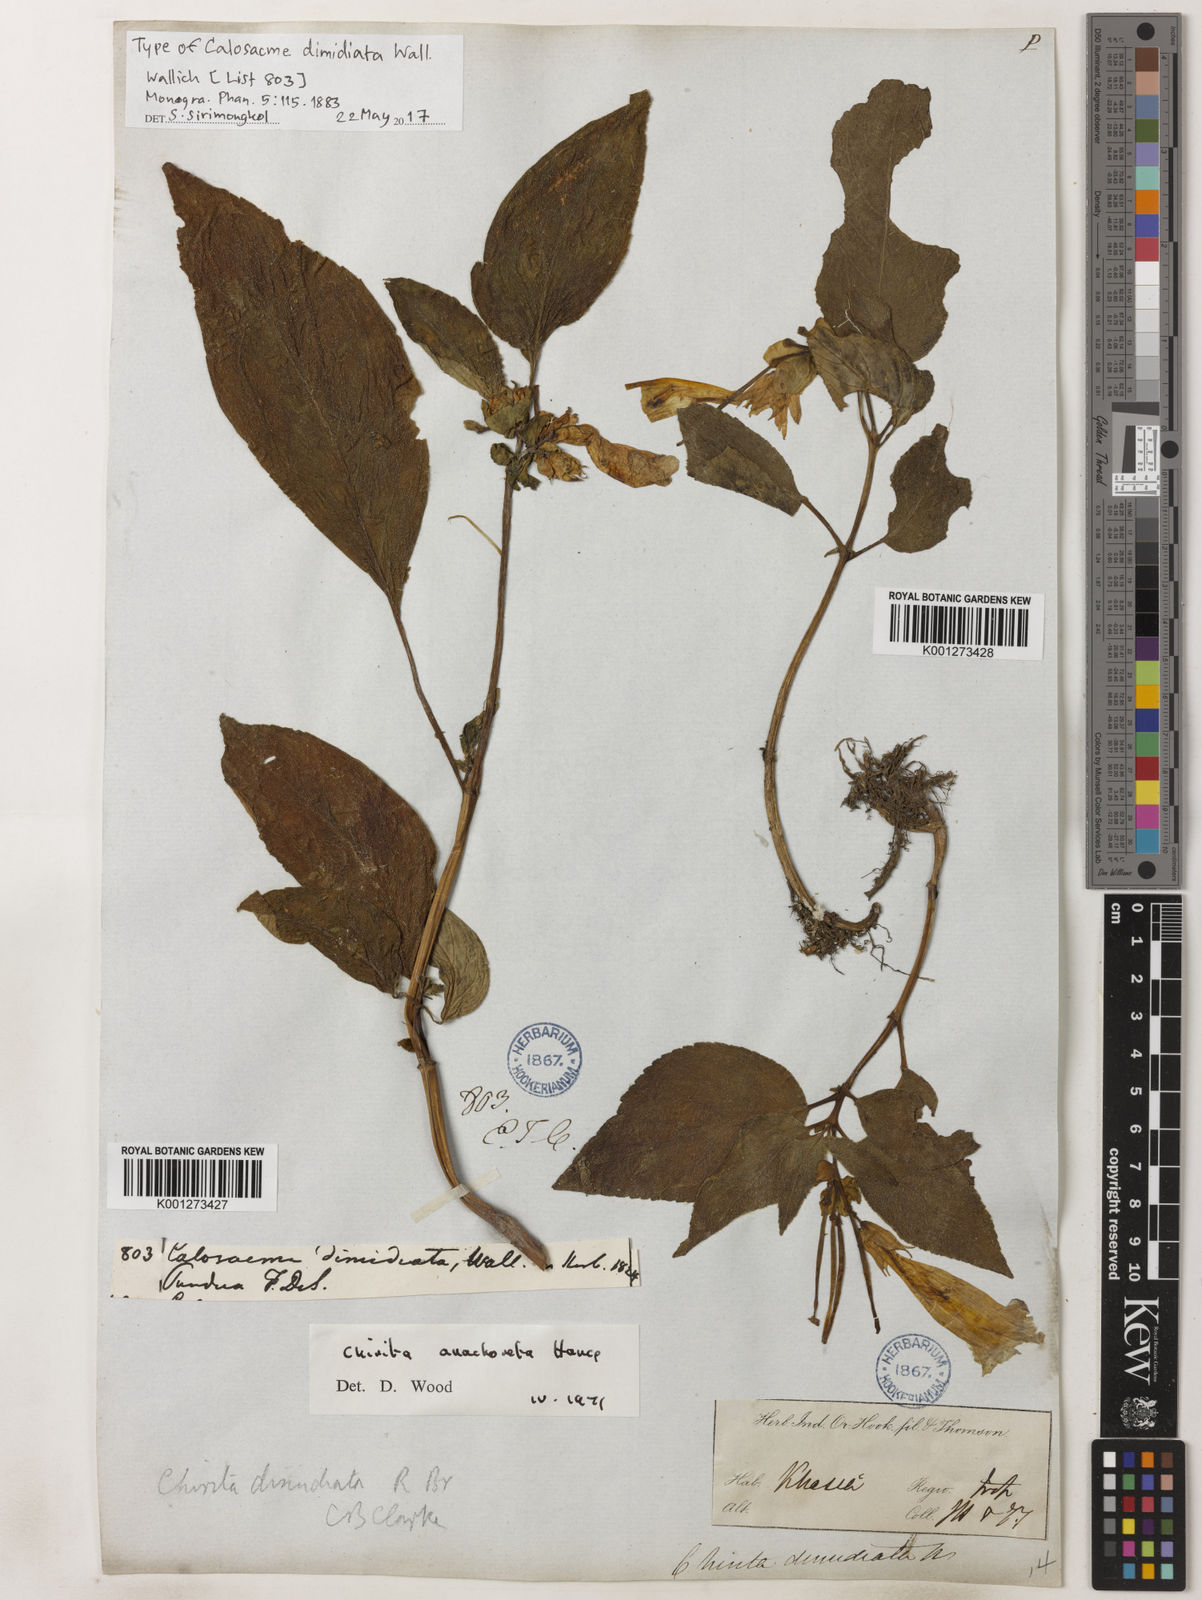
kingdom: Plantae
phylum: Tracheophyta
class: Magnoliopsida
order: Lamiales
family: Gesneriaceae
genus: Henckelia
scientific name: Henckelia anachoreta
